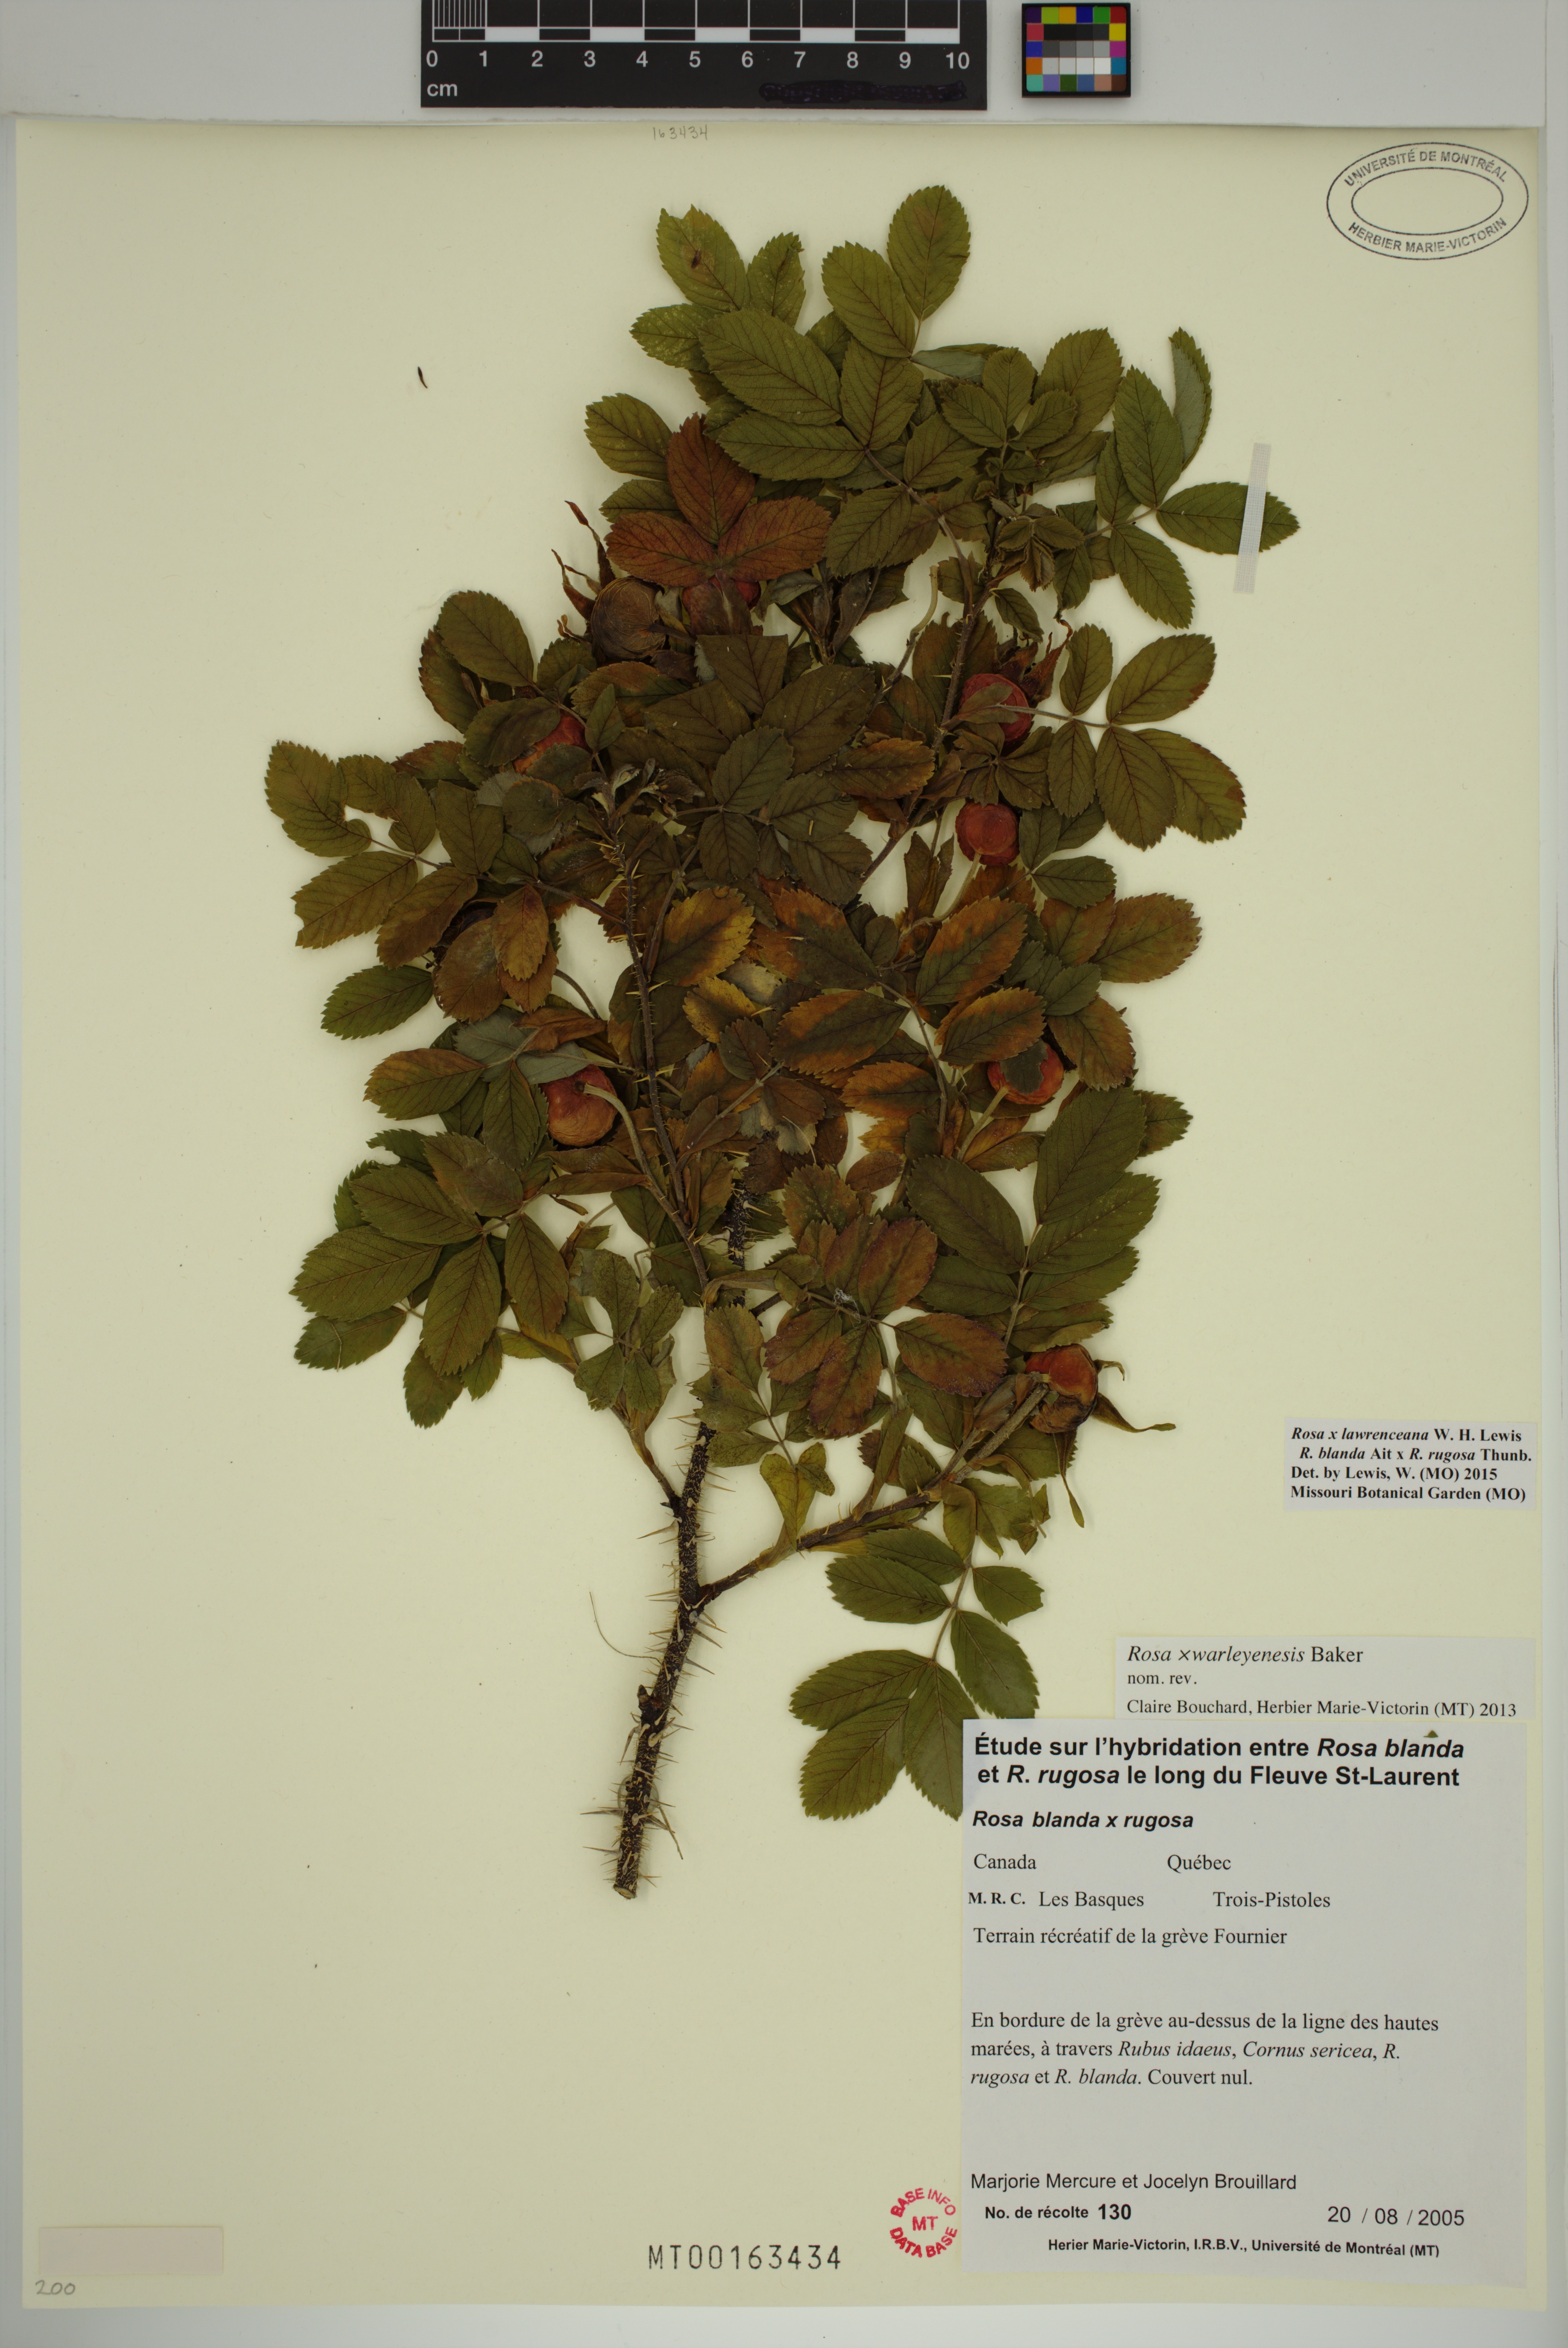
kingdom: Plantae
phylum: Tracheophyta
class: Magnoliopsida
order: Rosales
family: Rosaceae
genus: Rosa
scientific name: Rosa chinensis
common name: China rose
